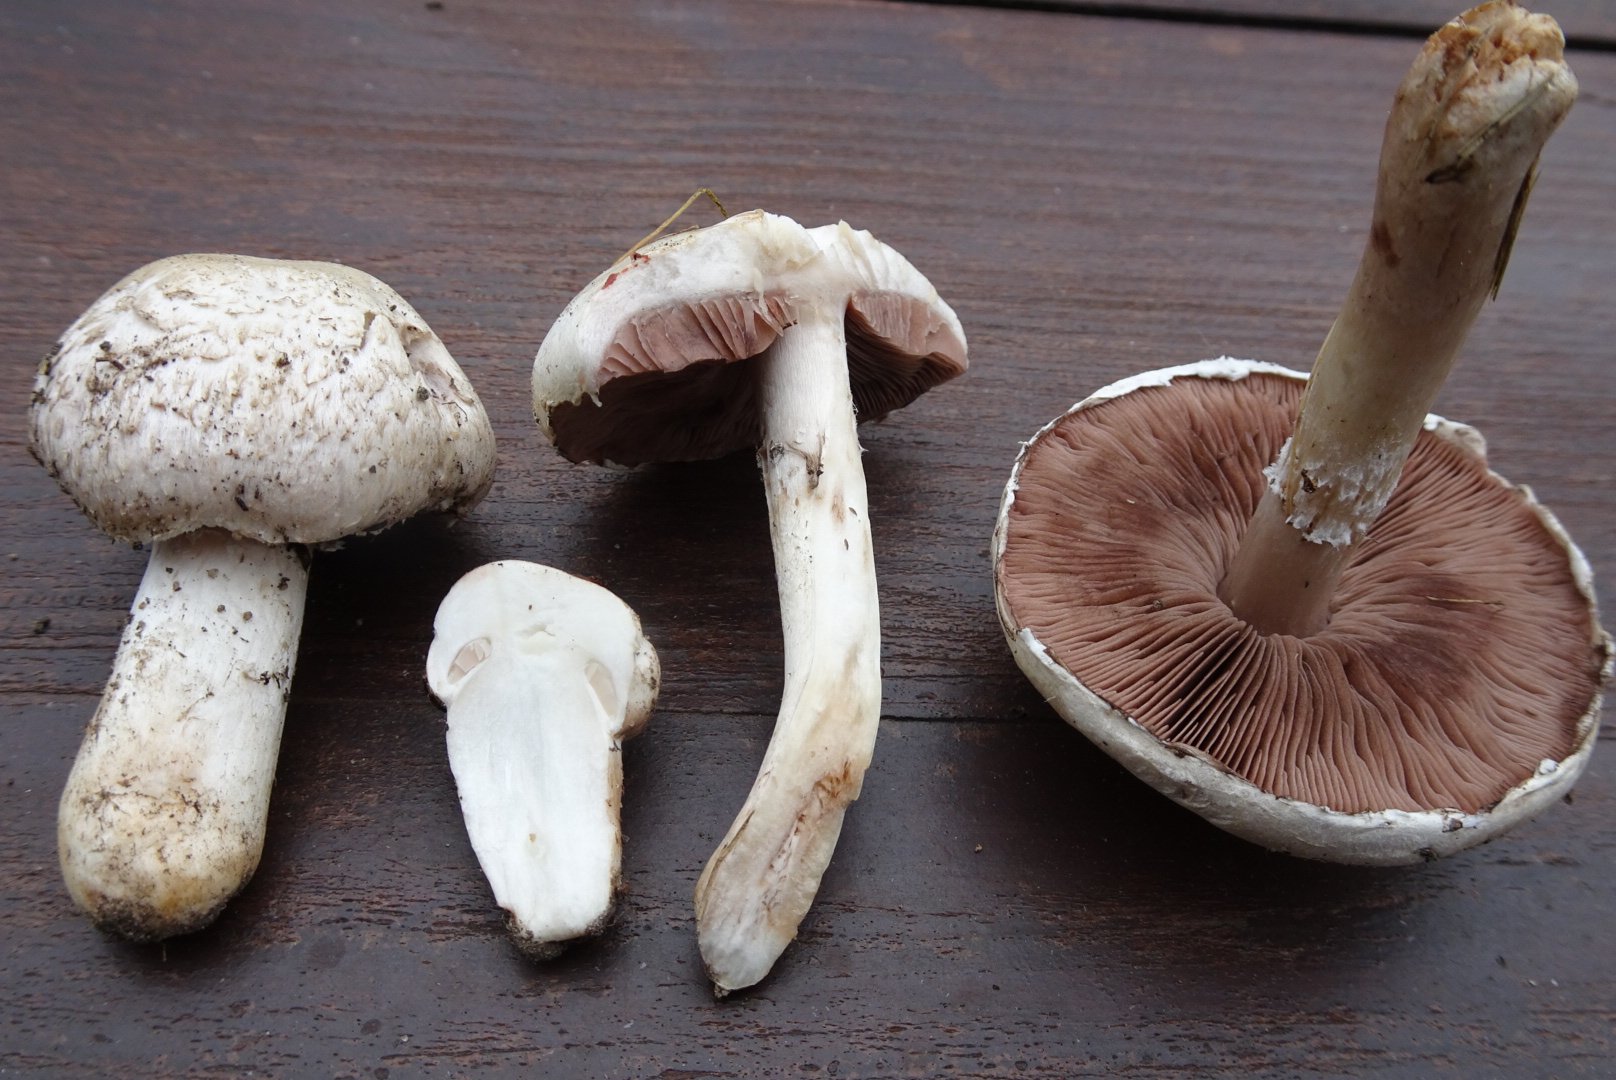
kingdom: Fungi
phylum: Basidiomycota
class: Agaricomycetes
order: Agaricales
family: Agaricaceae
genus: Agaricus
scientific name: Agaricus campestris
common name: mark-champignon
